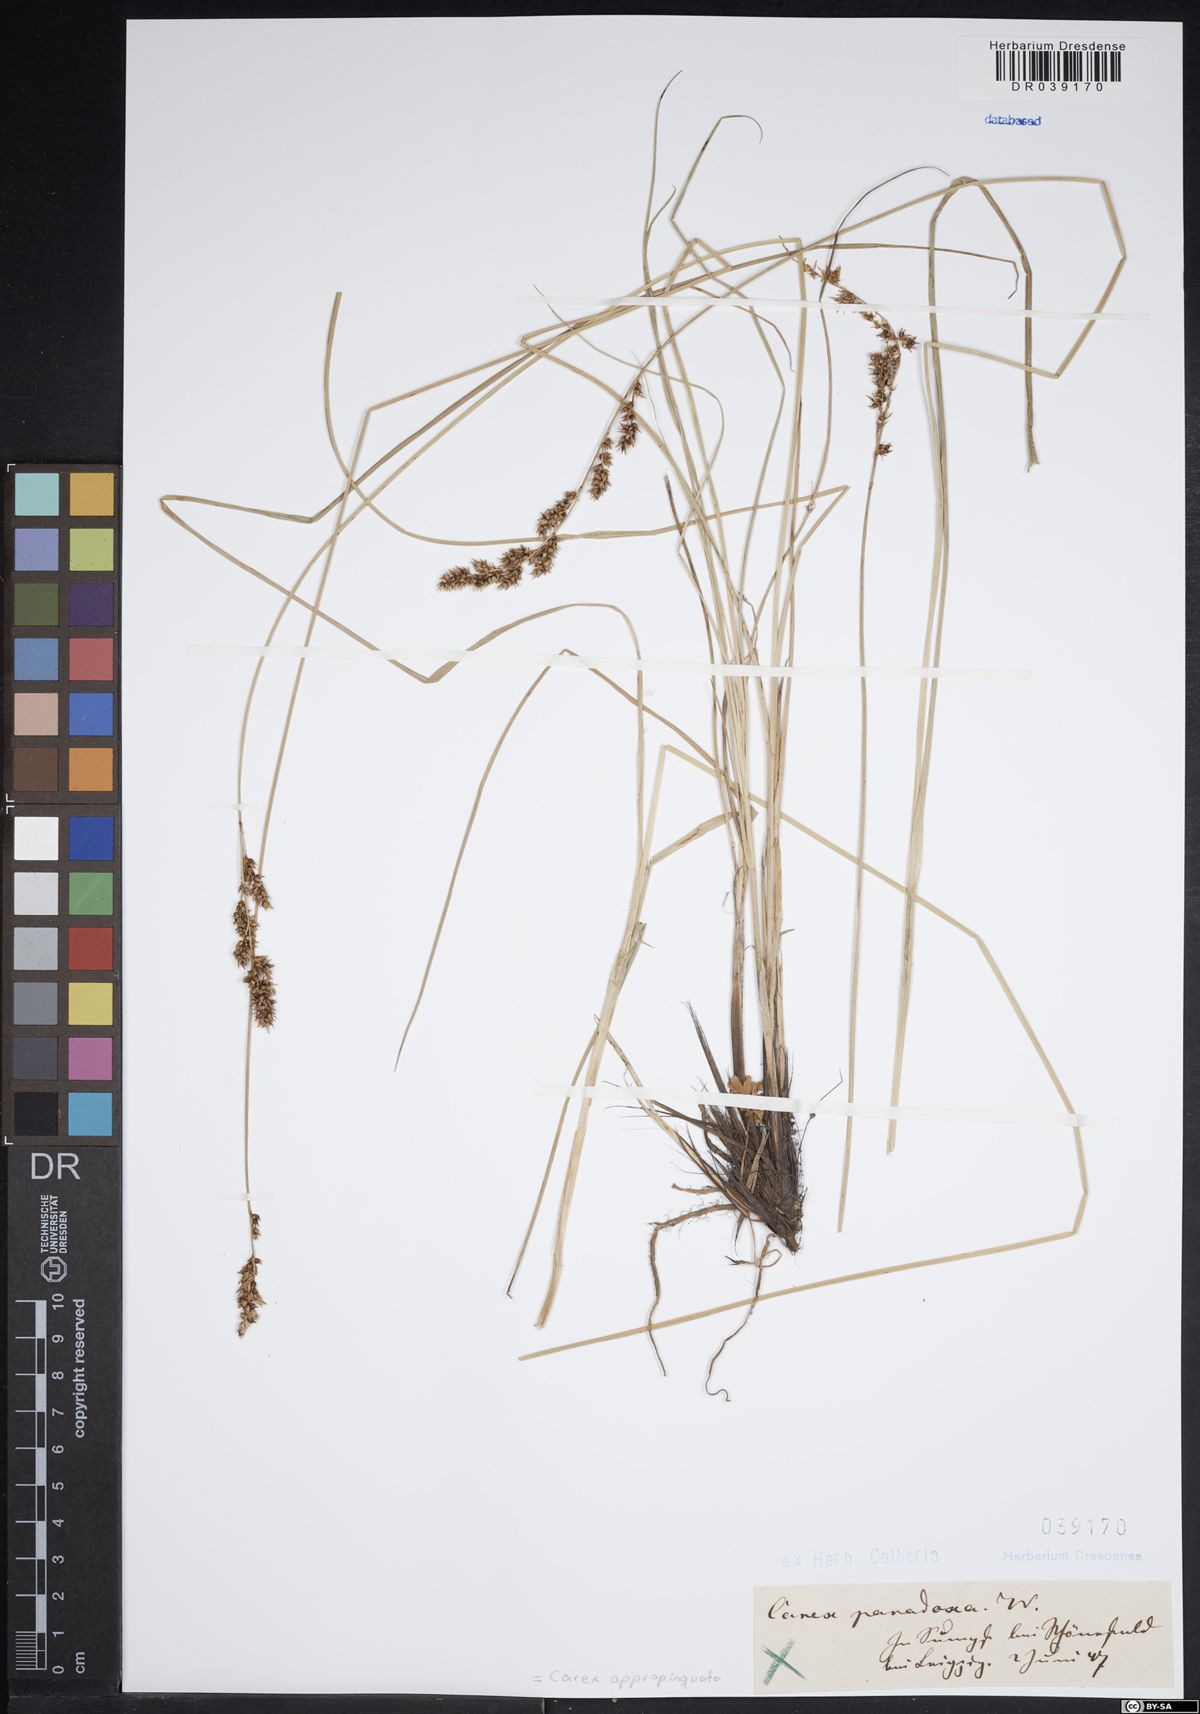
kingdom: Plantae
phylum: Tracheophyta
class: Liliopsida
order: Poales
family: Cyperaceae
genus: Carex
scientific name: Carex appropinquata
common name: Fibrous tussock-sedge
